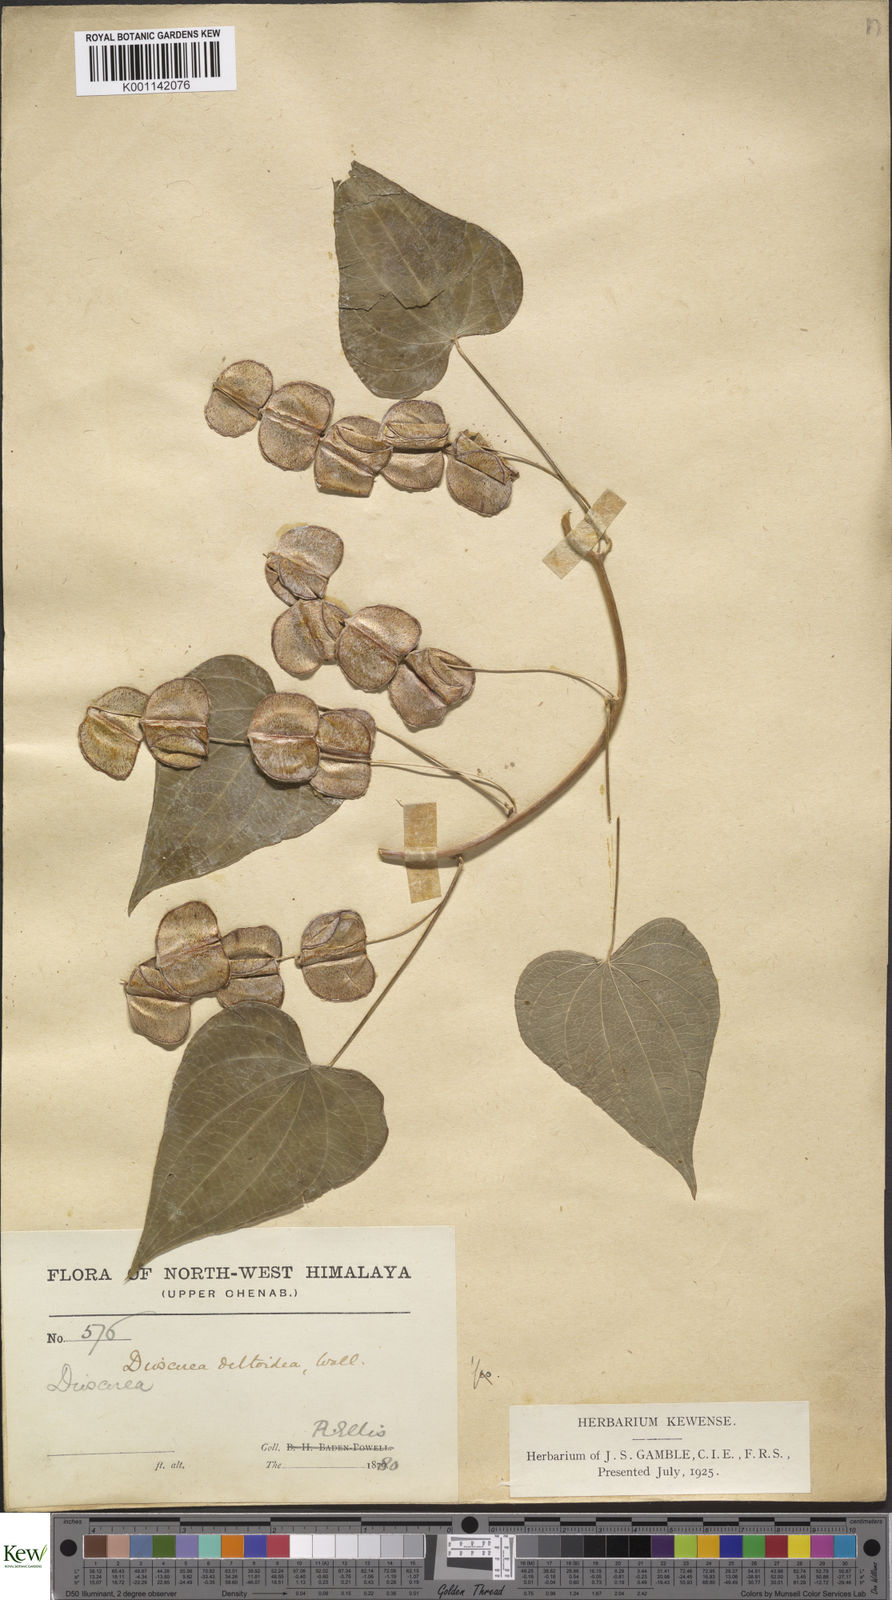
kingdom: Plantae
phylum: Tracheophyta
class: Liliopsida
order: Dioscoreales
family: Dioscoreaceae
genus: Dioscorea
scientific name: Dioscorea deltoidea
